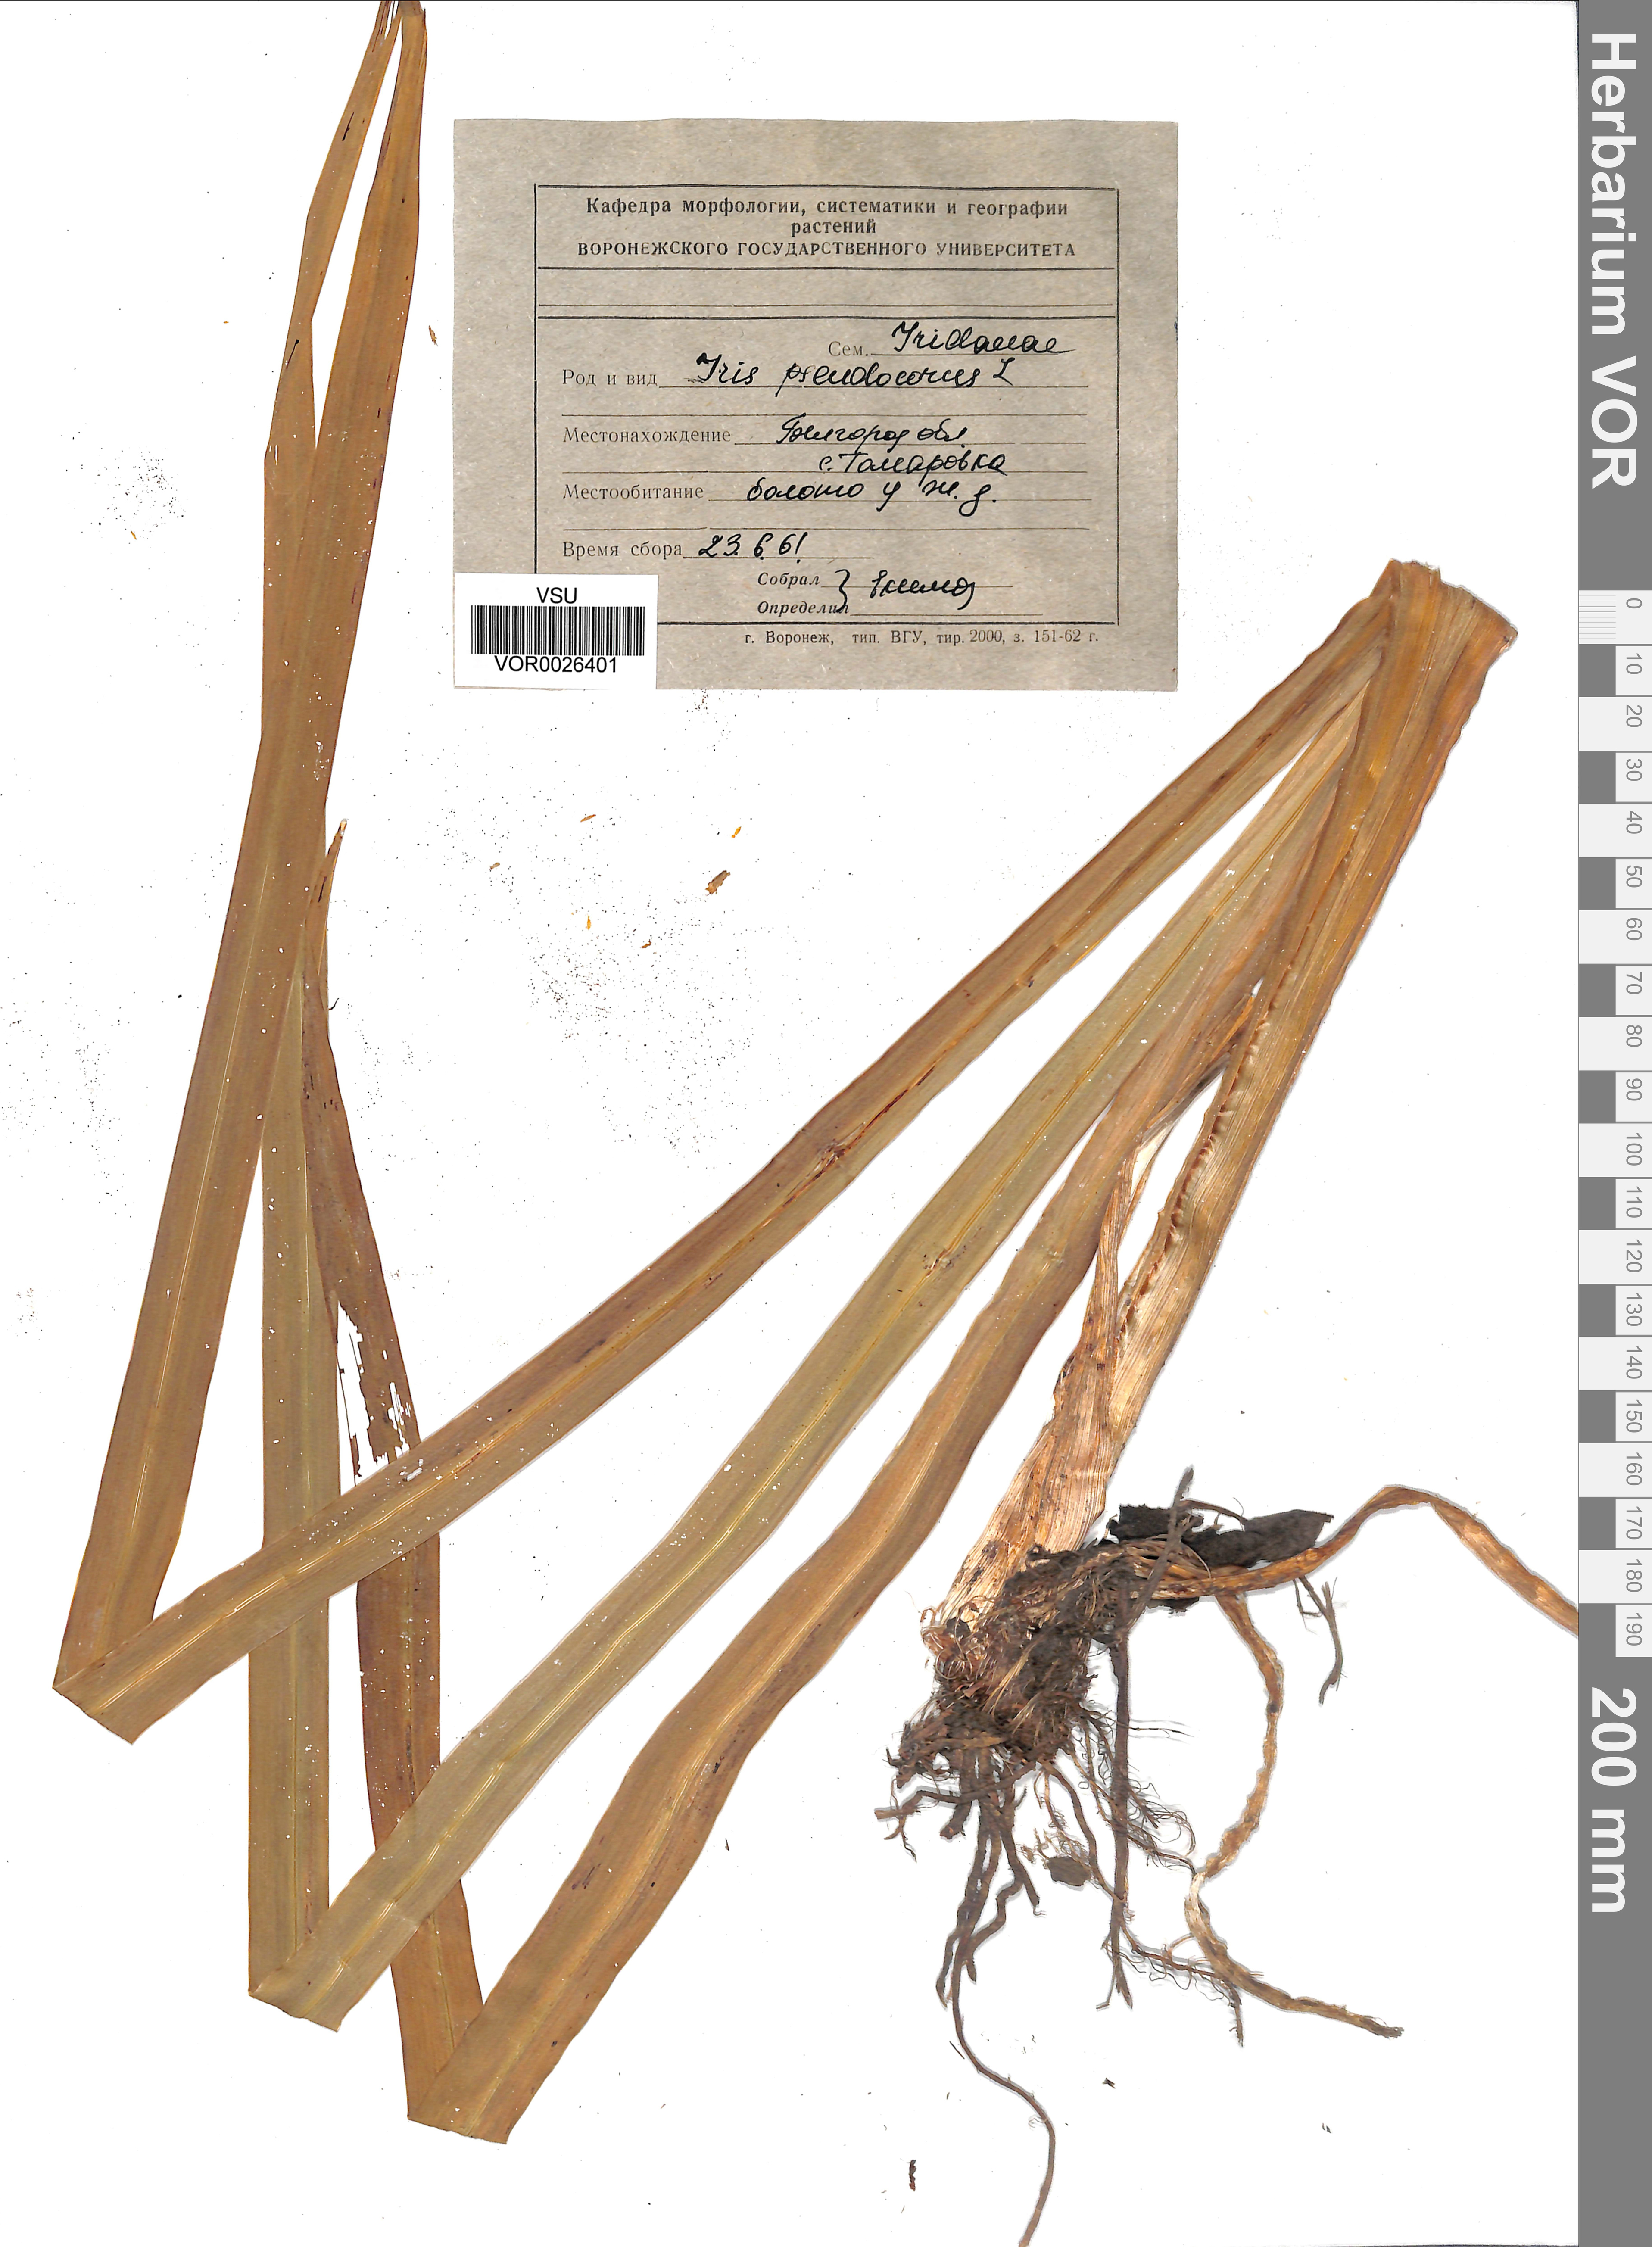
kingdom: Plantae
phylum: Tracheophyta
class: Liliopsida
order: Asparagales
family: Iridaceae
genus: Iris
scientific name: Iris pseudacorus
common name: Yellow flag
